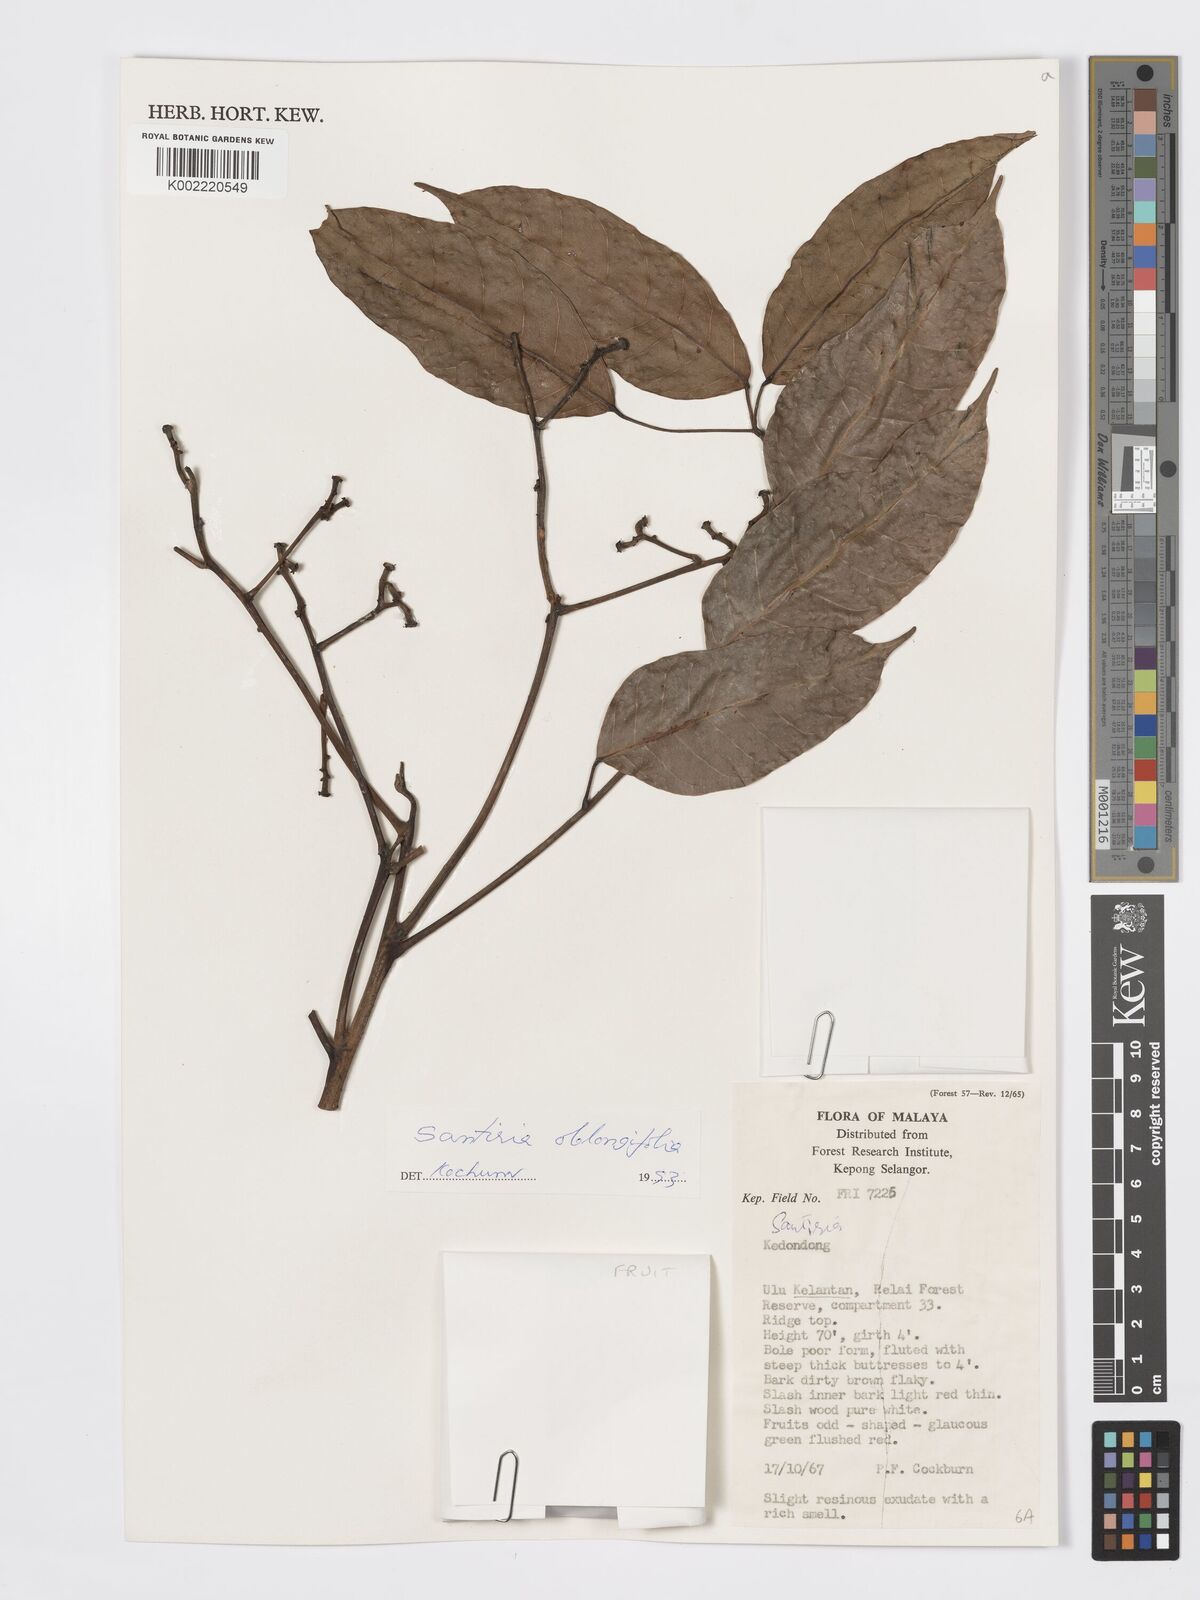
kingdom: Plantae
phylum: Tracheophyta
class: Magnoliopsida
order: Sapindales
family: Burseraceae
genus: Santiria
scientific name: Santiria oblongifolia
